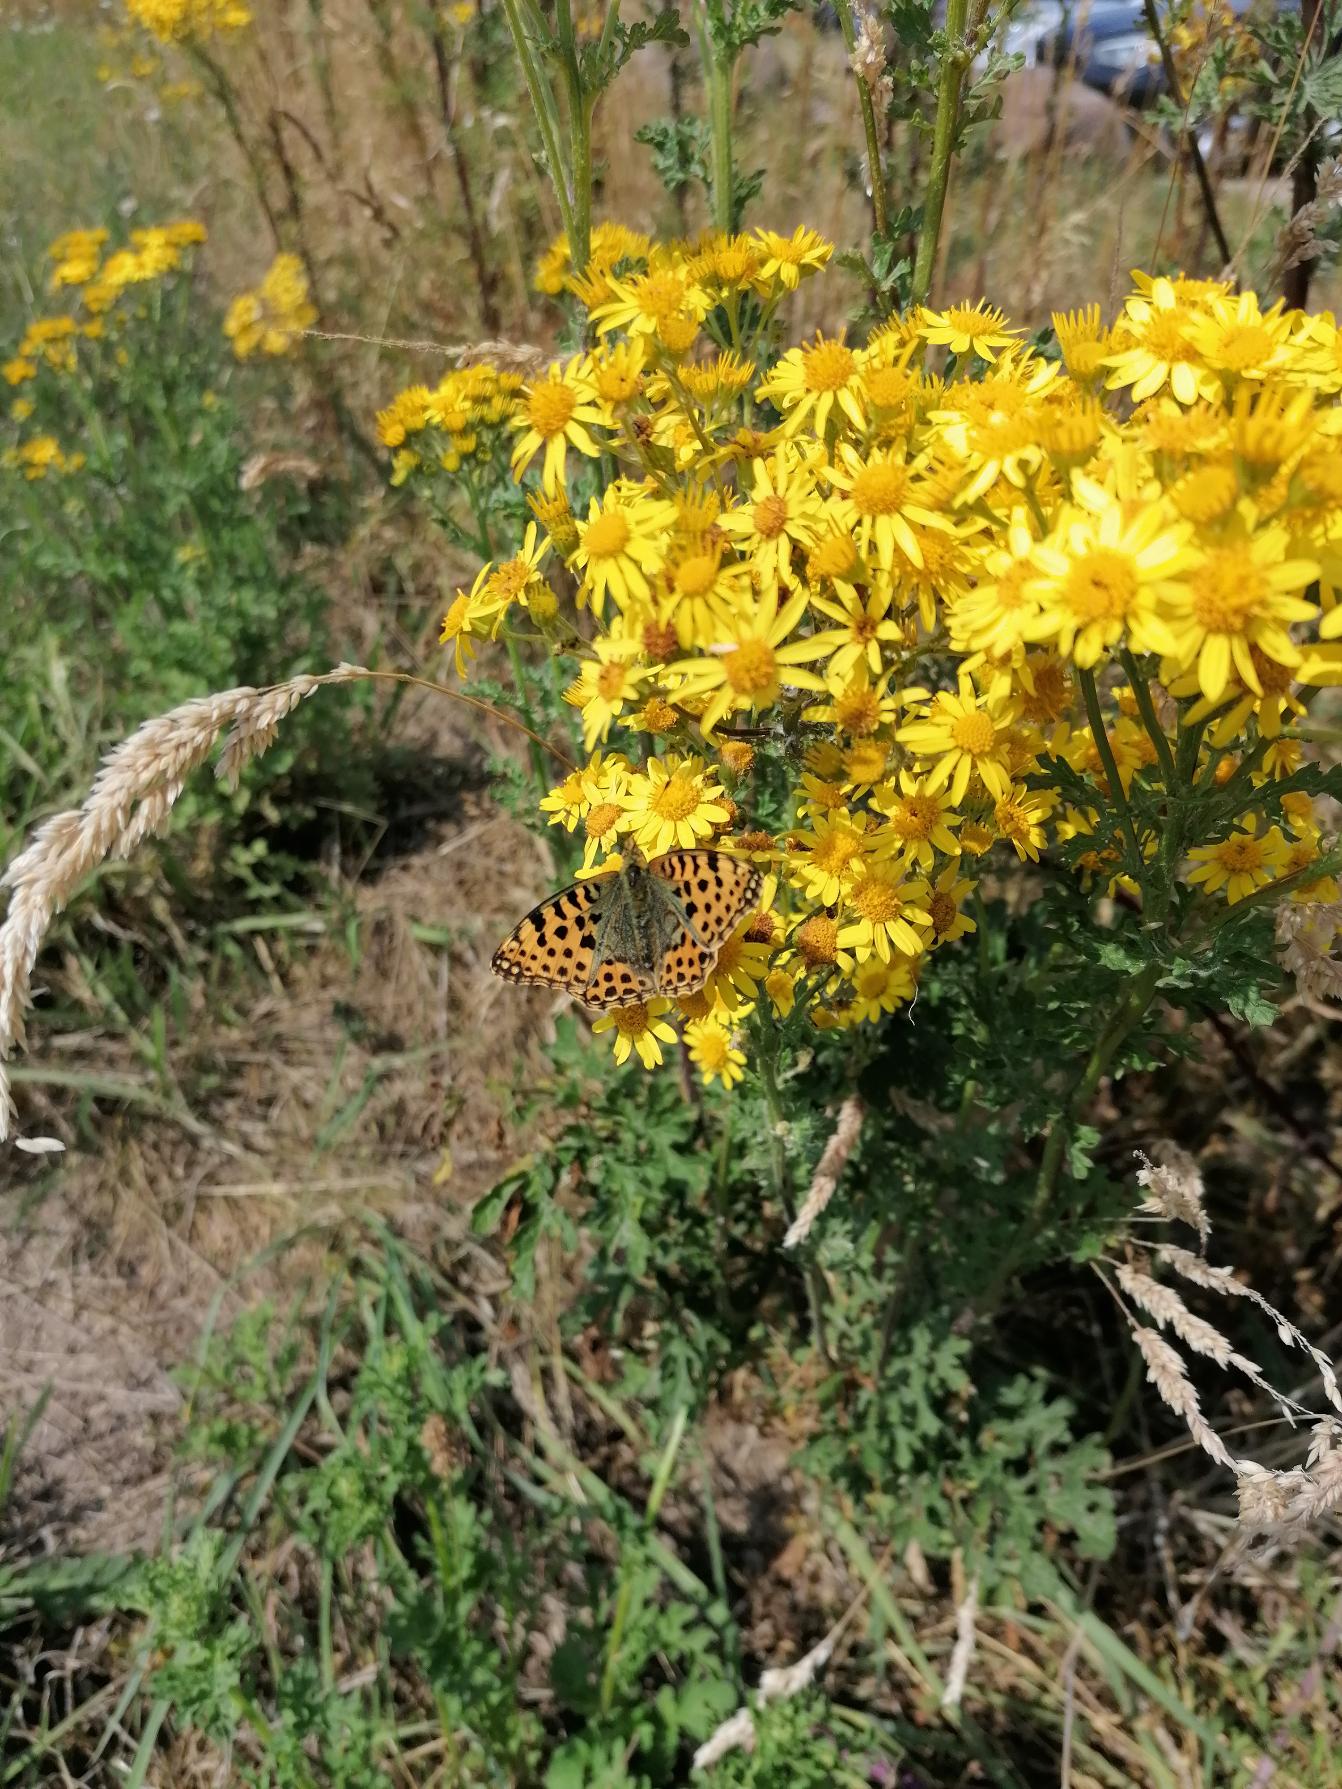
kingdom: Animalia
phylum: Arthropoda
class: Insecta
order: Lepidoptera
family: Nymphalidae
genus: Issoria
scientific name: Issoria lathonia
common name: Storplettet perlemorsommerfugl
